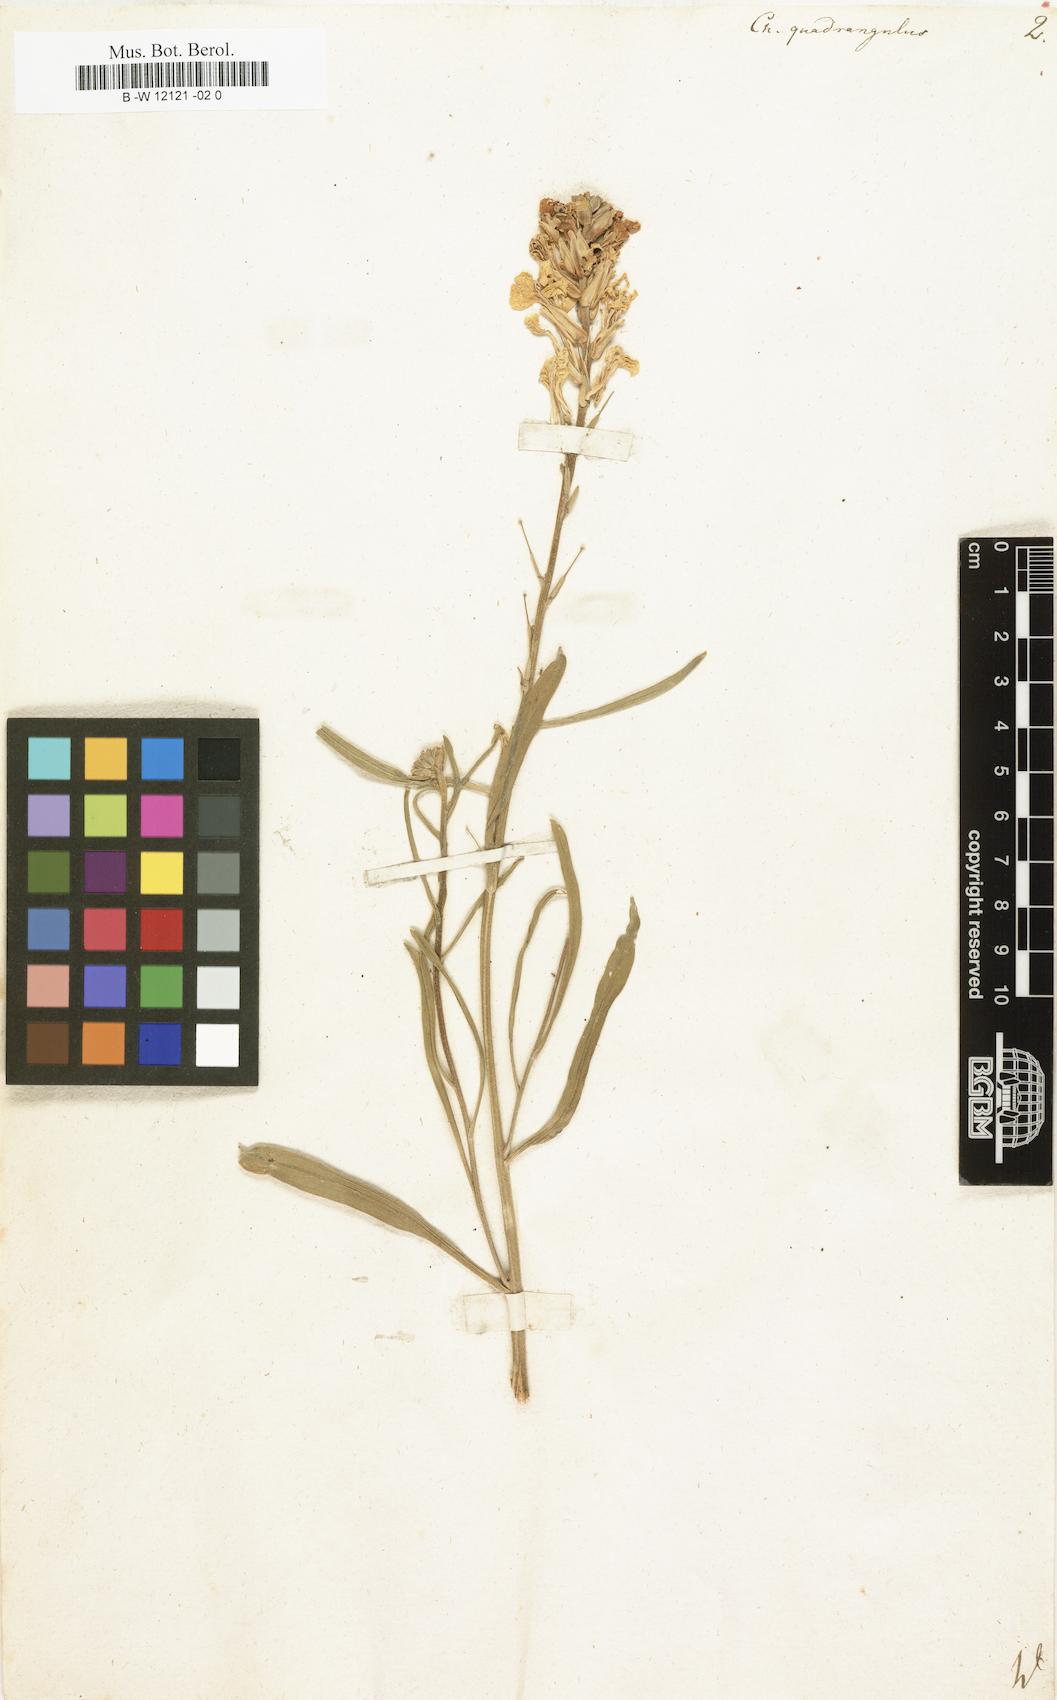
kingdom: Plantae
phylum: Tracheophyta
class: Magnoliopsida
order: Brassicales
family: Brassicaceae
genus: Erysimum
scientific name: Erysimum
